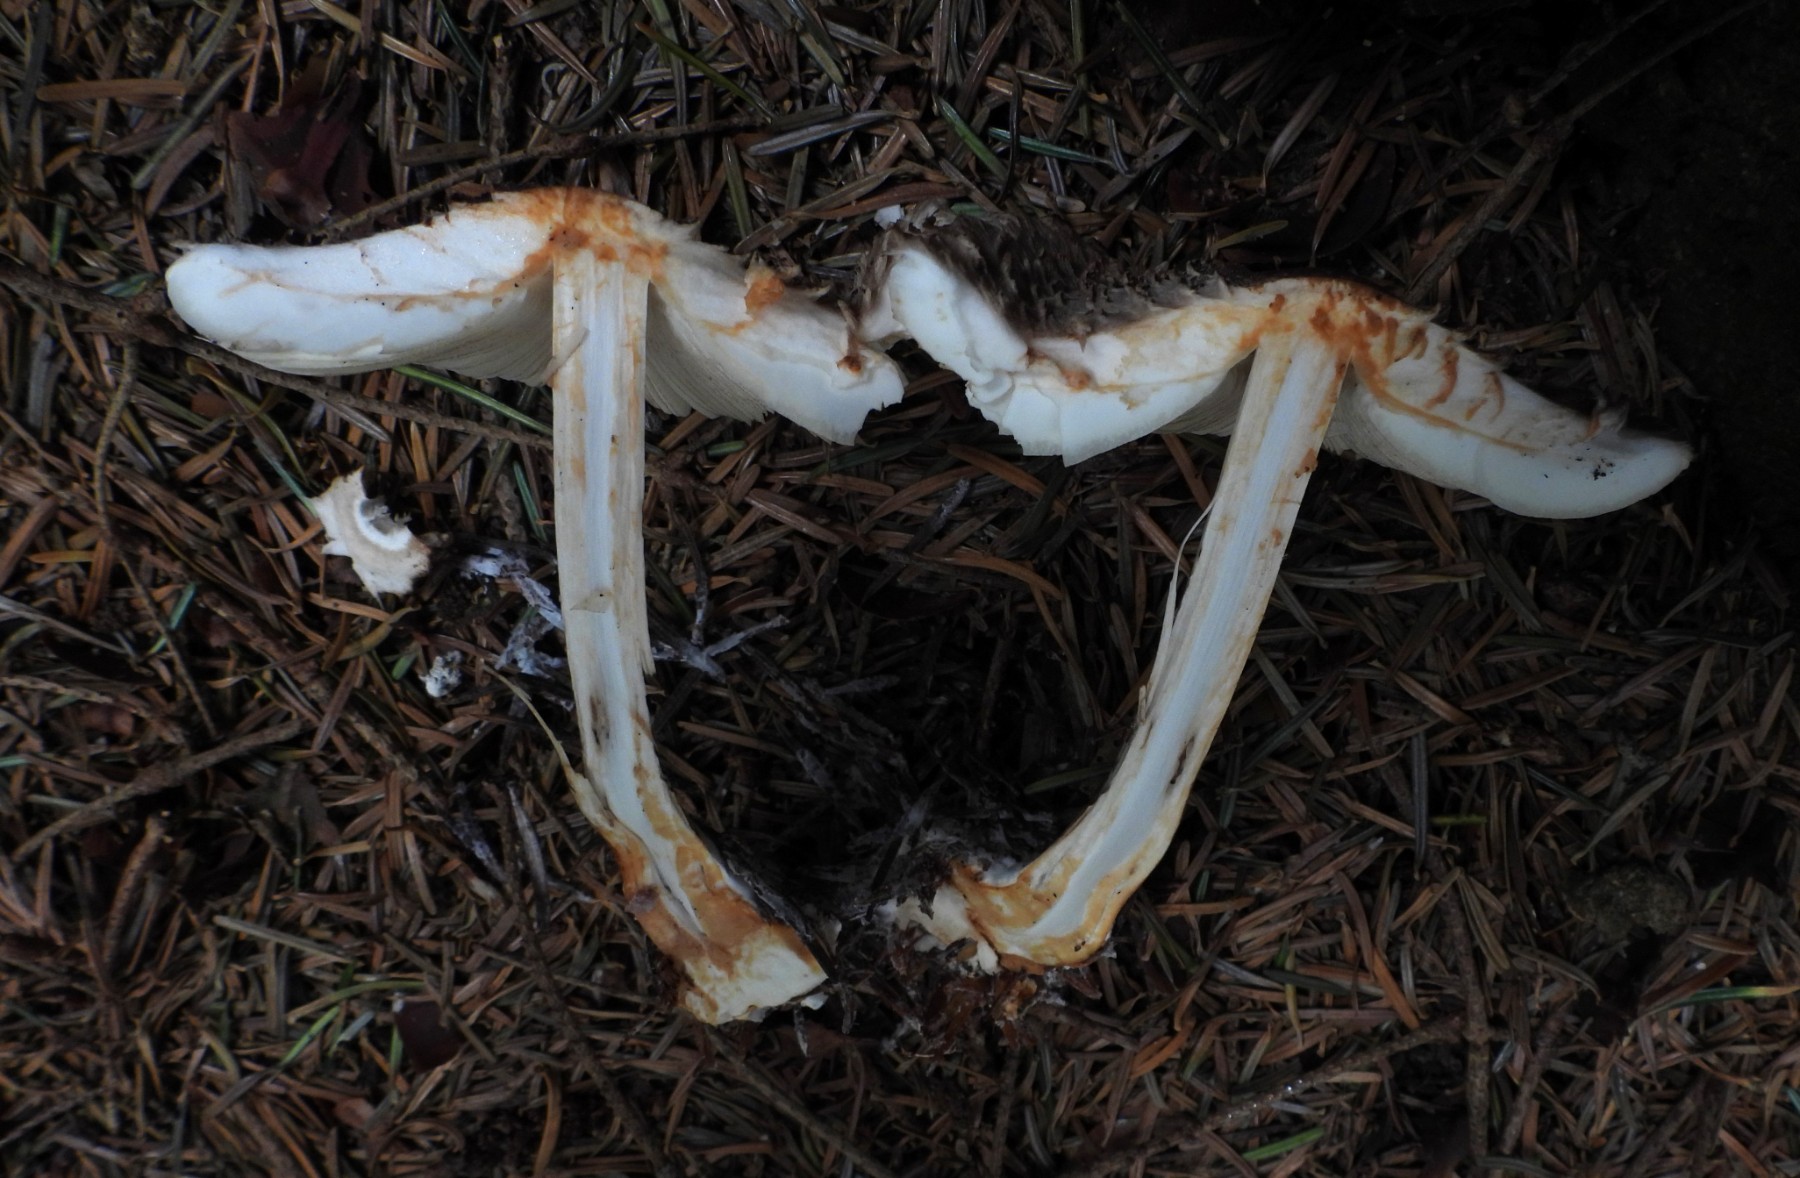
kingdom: Fungi
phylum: Basidiomycota
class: Agaricomycetes
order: Agaricales
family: Agaricaceae
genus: Chlorophyllum
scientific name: Chlorophyllum olivieri
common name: almindelig rabarberhat
